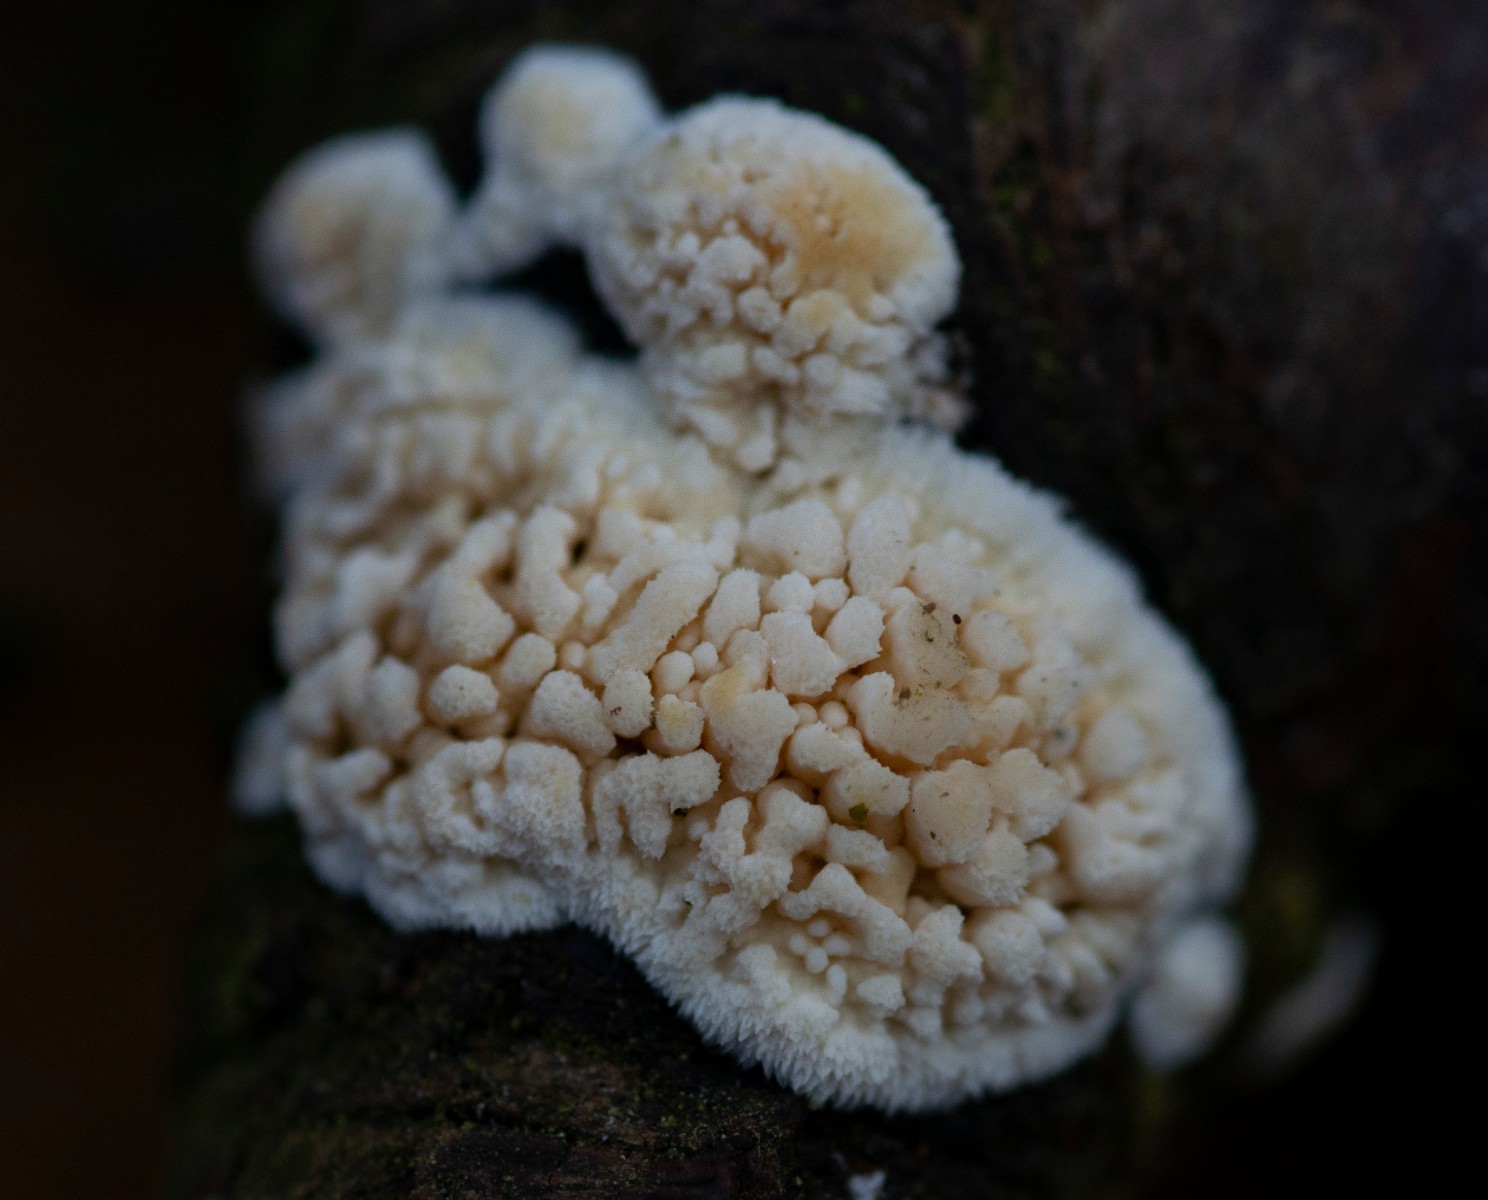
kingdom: Fungi
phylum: Basidiomycota
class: Agaricomycetes
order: Hymenochaetales
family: Schizoporaceae
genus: Xylodon
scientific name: Xylodon radula
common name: grovtandet kalkskind
